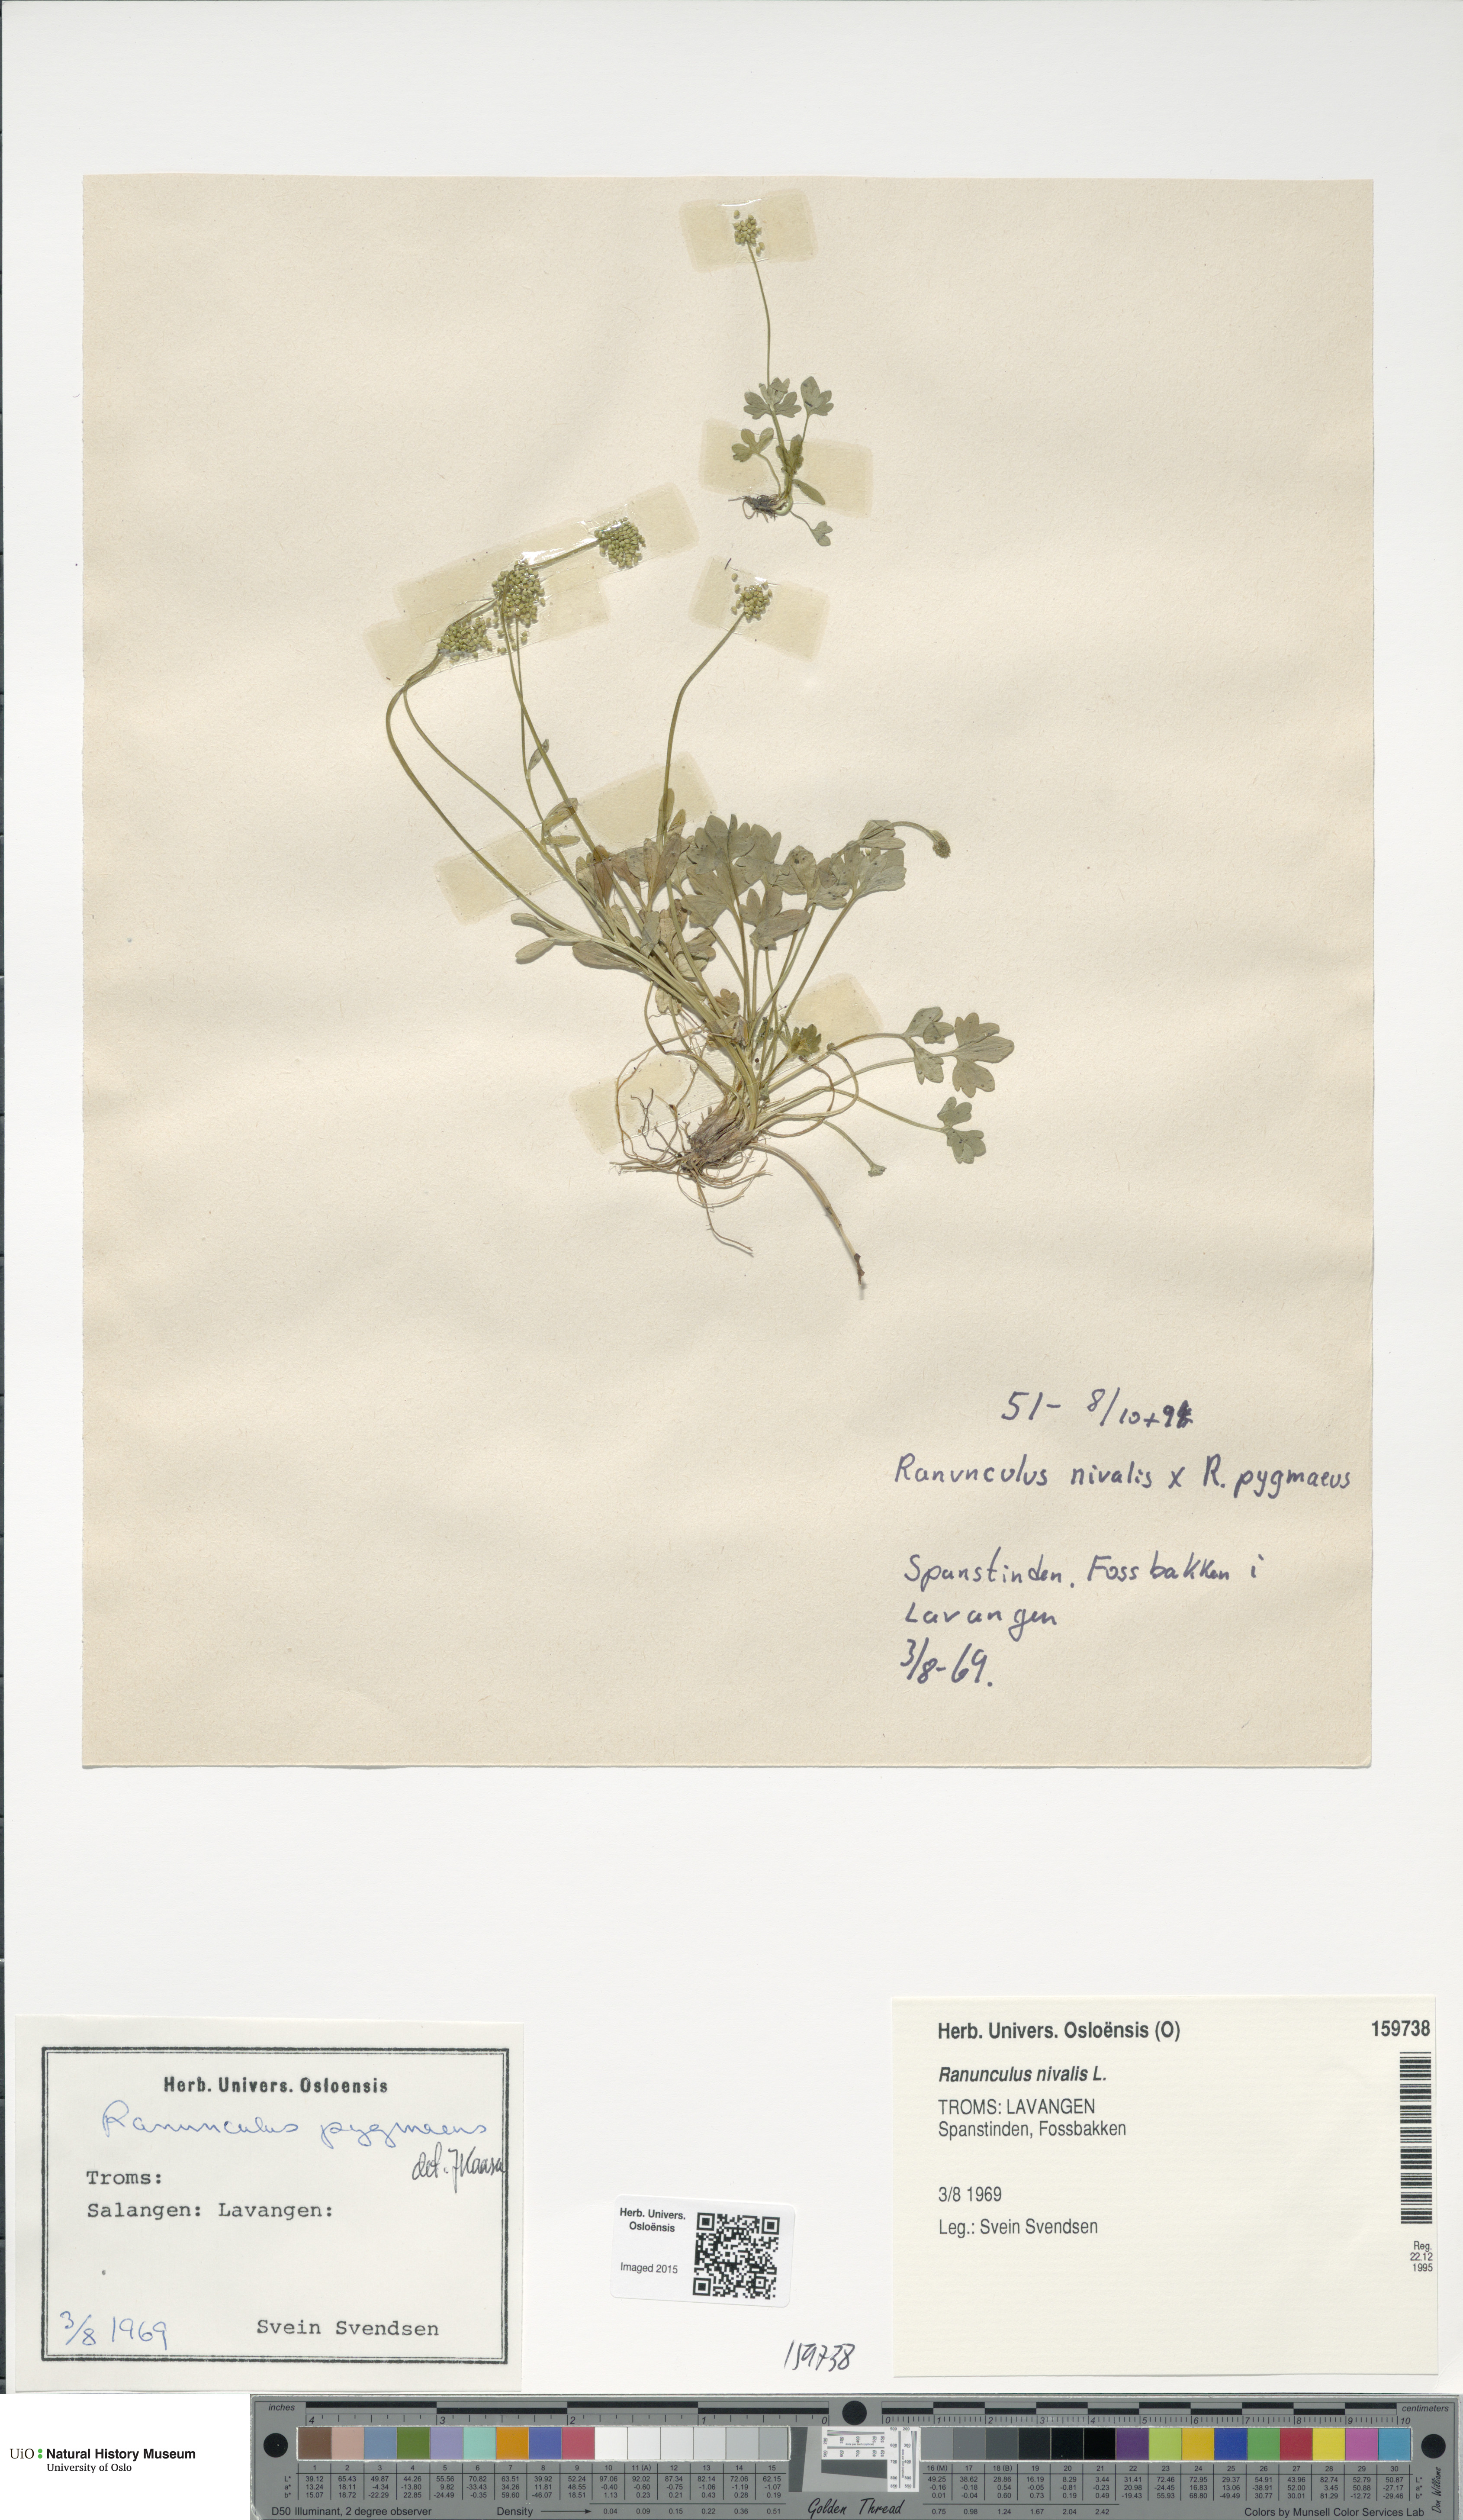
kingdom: Plantae
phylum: Tracheophyta
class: Magnoliopsida
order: Ranunculales
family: Ranunculaceae
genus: Ranunculus
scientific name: Ranunculus pygmaeus
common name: Dwarf buttercup
